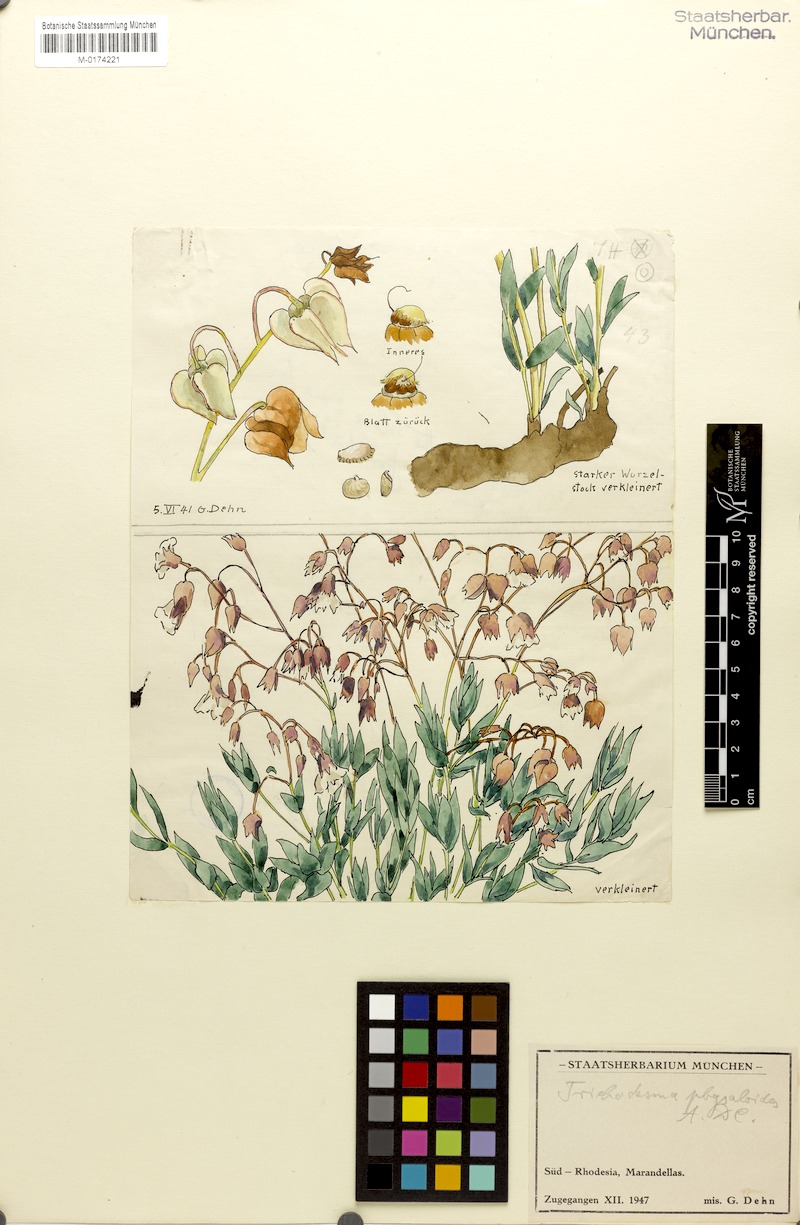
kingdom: Plantae
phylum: Tracheophyta
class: Magnoliopsida
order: Boraginales
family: Boraginaceae
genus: Trichodesma
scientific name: Trichodesma physaloides
